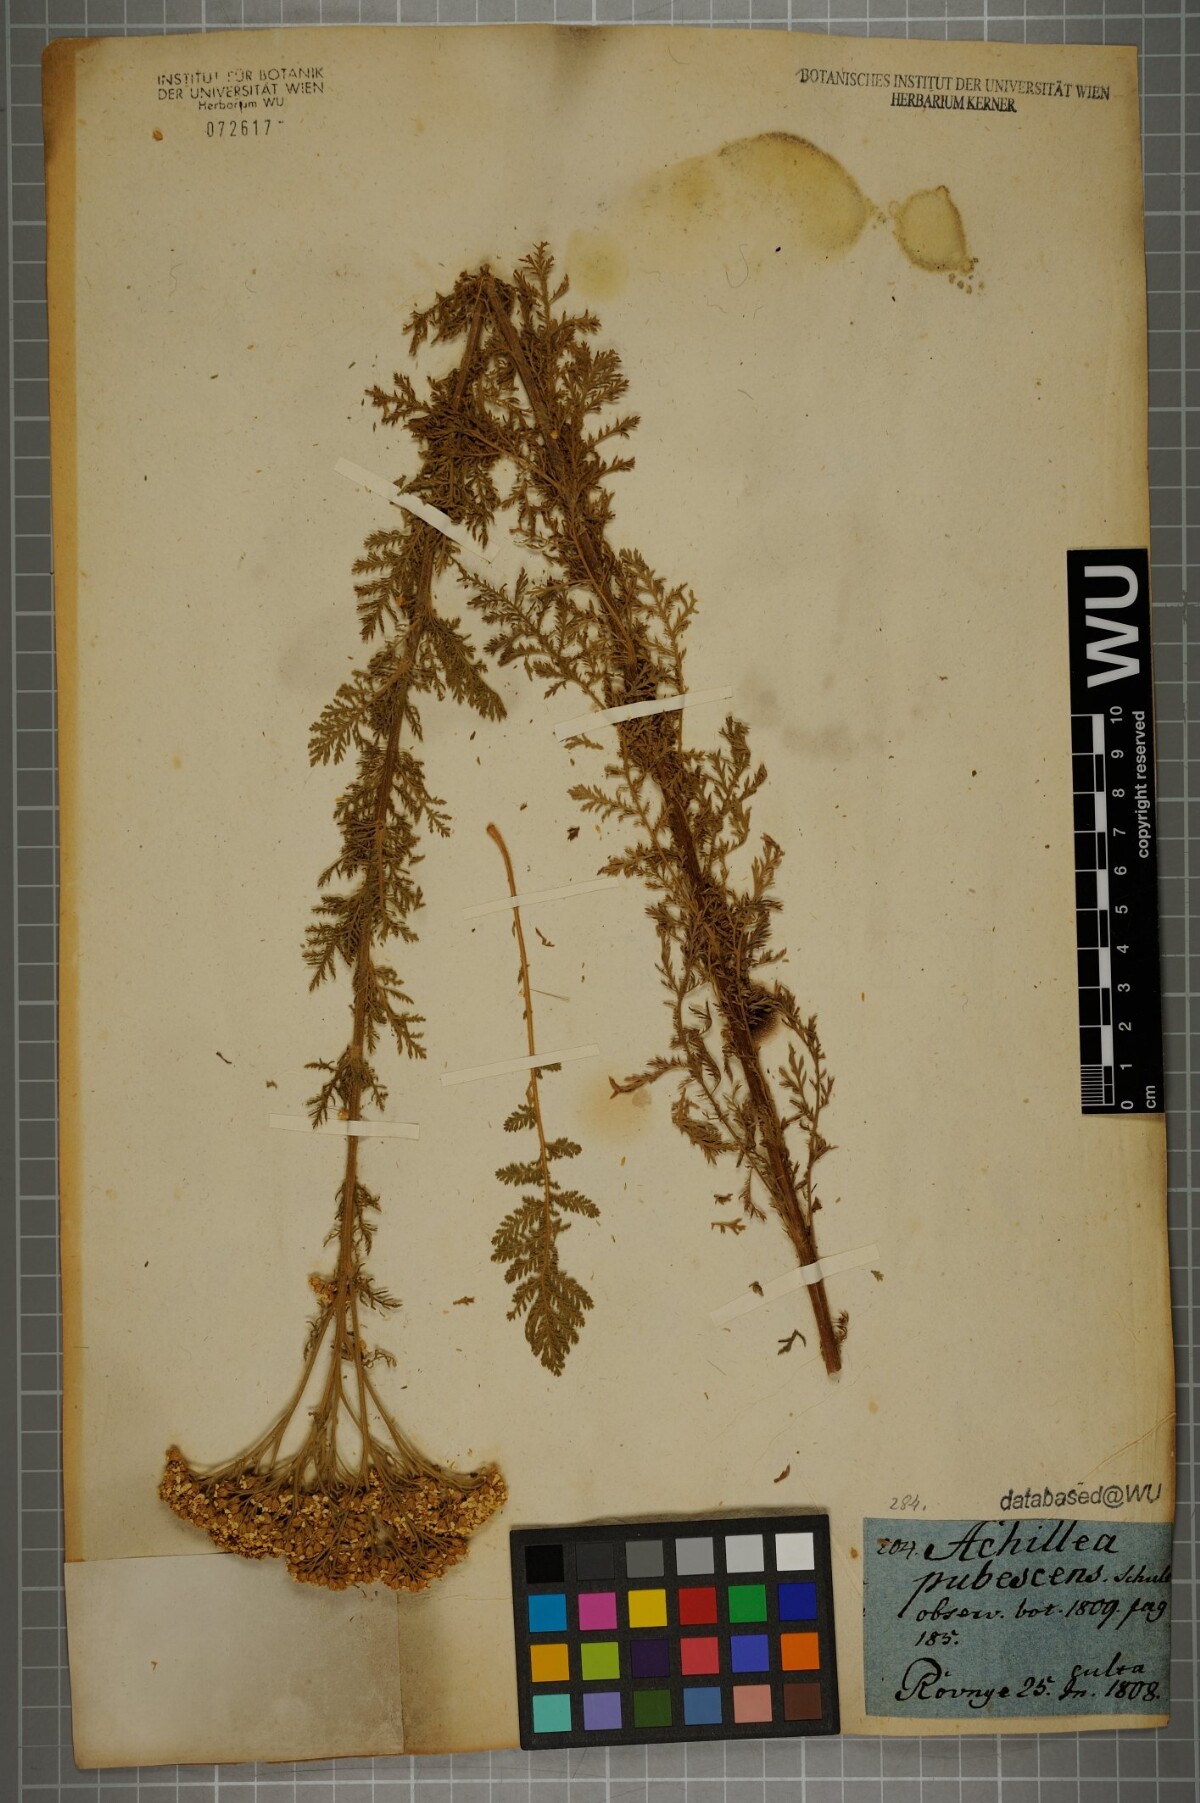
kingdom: Plantae
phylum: Tracheophyta
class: Magnoliopsida
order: Asterales
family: Asteraceae
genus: Achillea
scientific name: Achillea nobilis
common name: Noble yarrow
